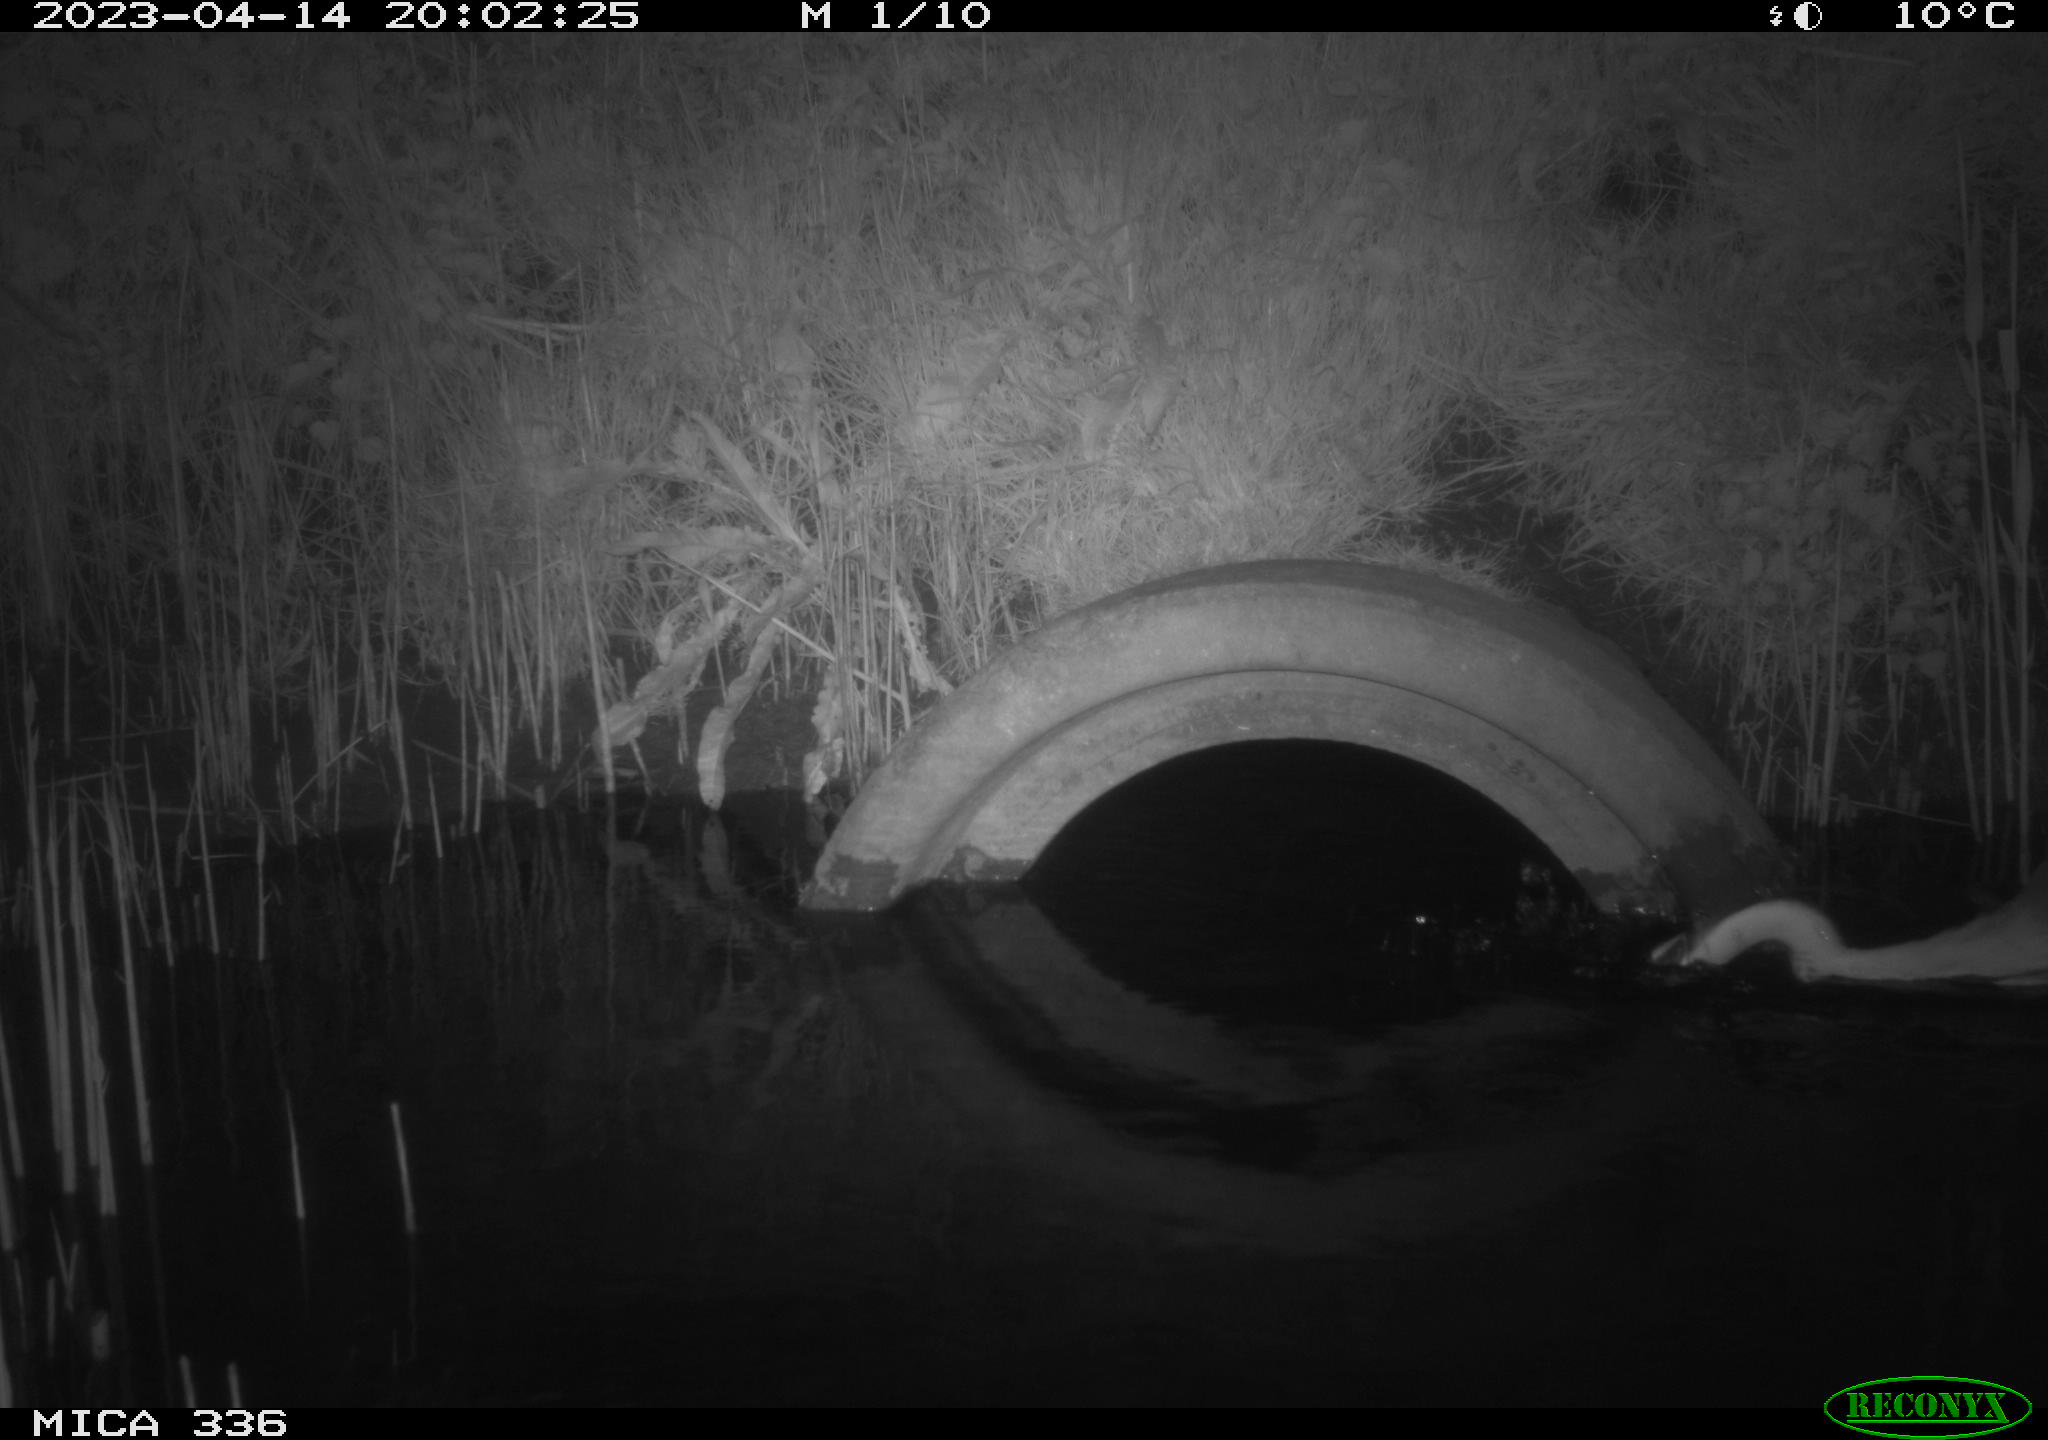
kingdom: Animalia
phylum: Chordata
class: Aves
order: Pelecaniformes
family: Ardeidae
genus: Ardea
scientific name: Ardea cinerea
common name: Grey heron
